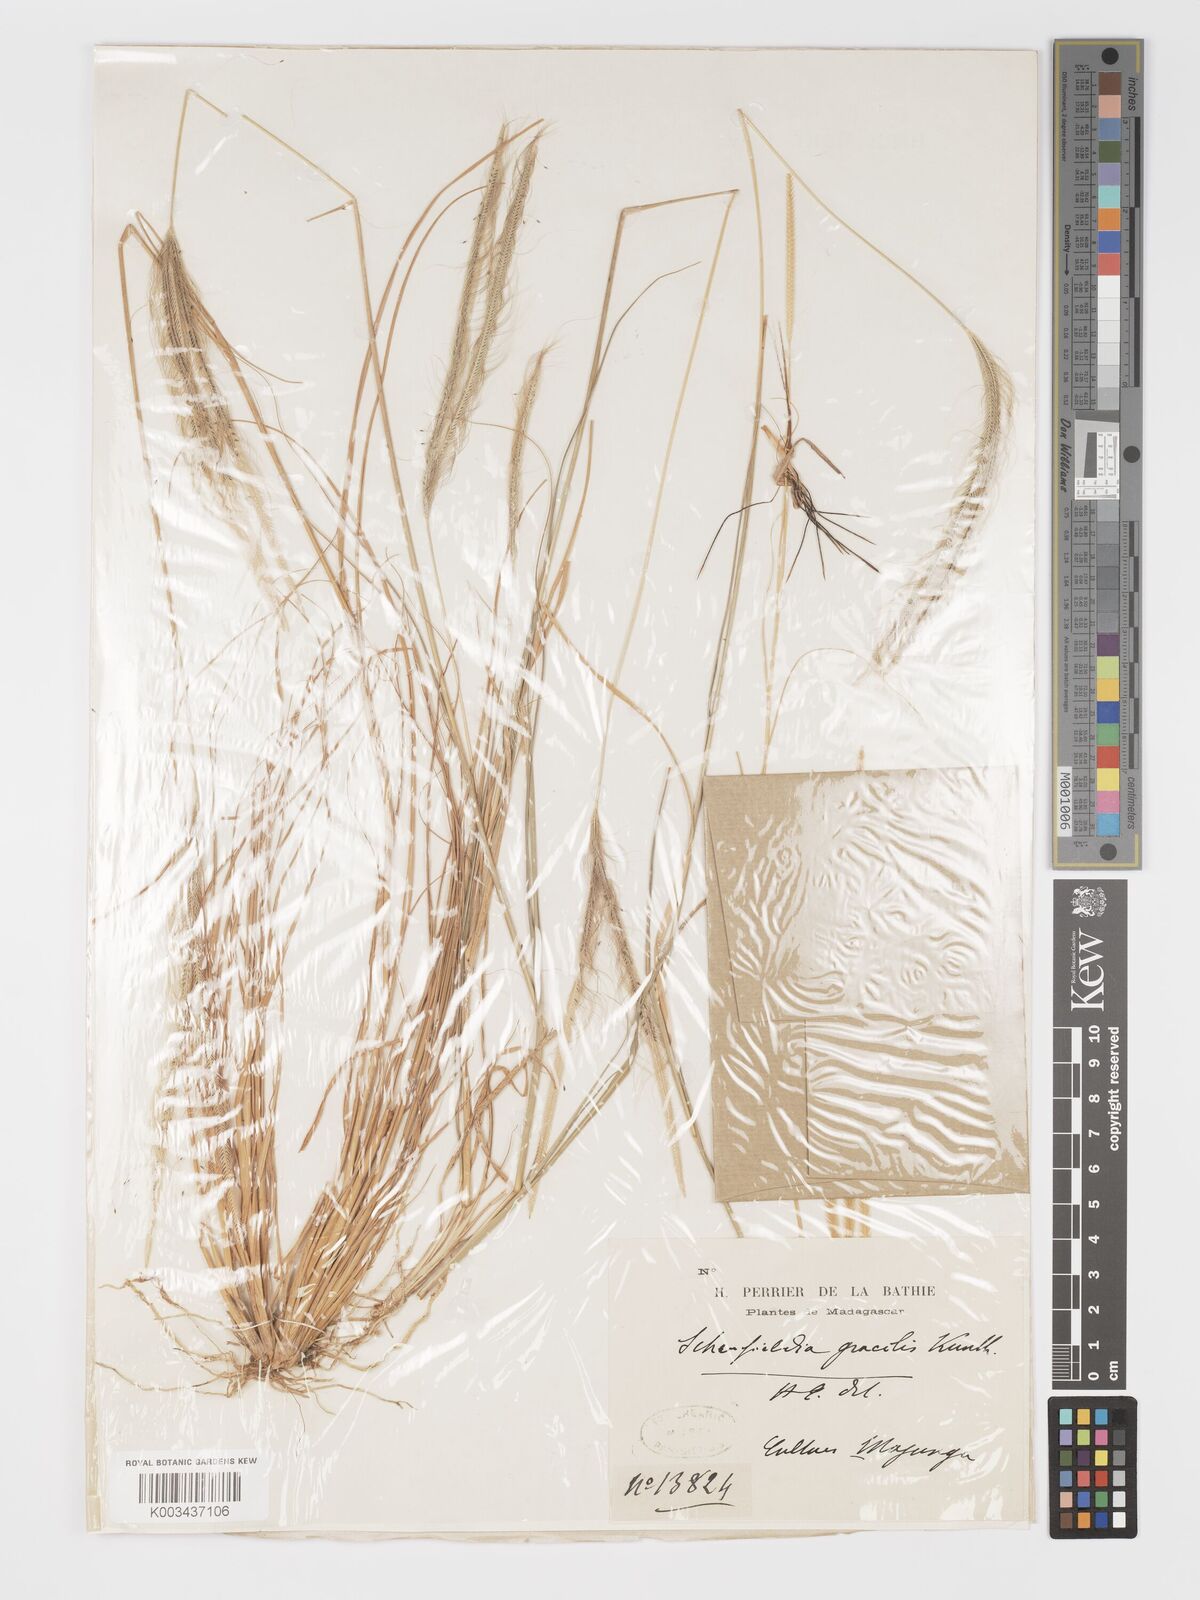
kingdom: Plantae
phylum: Tracheophyta
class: Liliopsida
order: Poales
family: Poaceae
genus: Schoenefeldia
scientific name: Schoenefeldia gracilis
